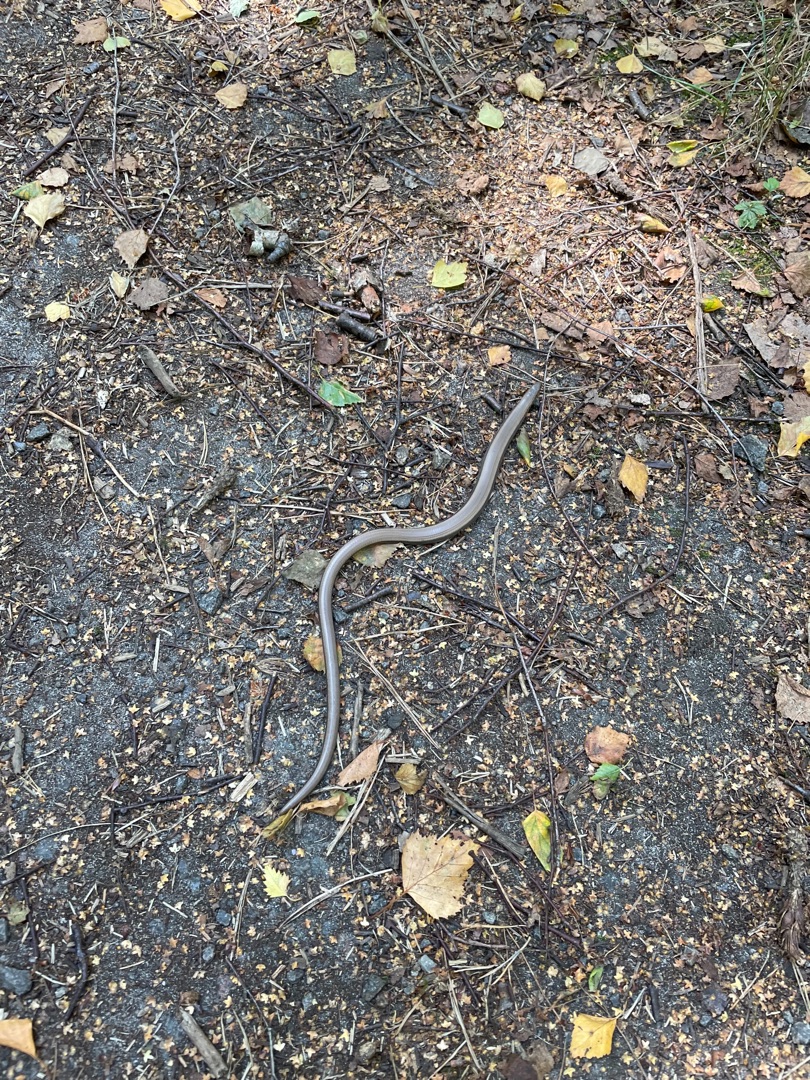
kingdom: Animalia
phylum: Chordata
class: Squamata
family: Anguidae
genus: Anguis
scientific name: Anguis fragilis
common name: Stålorm
